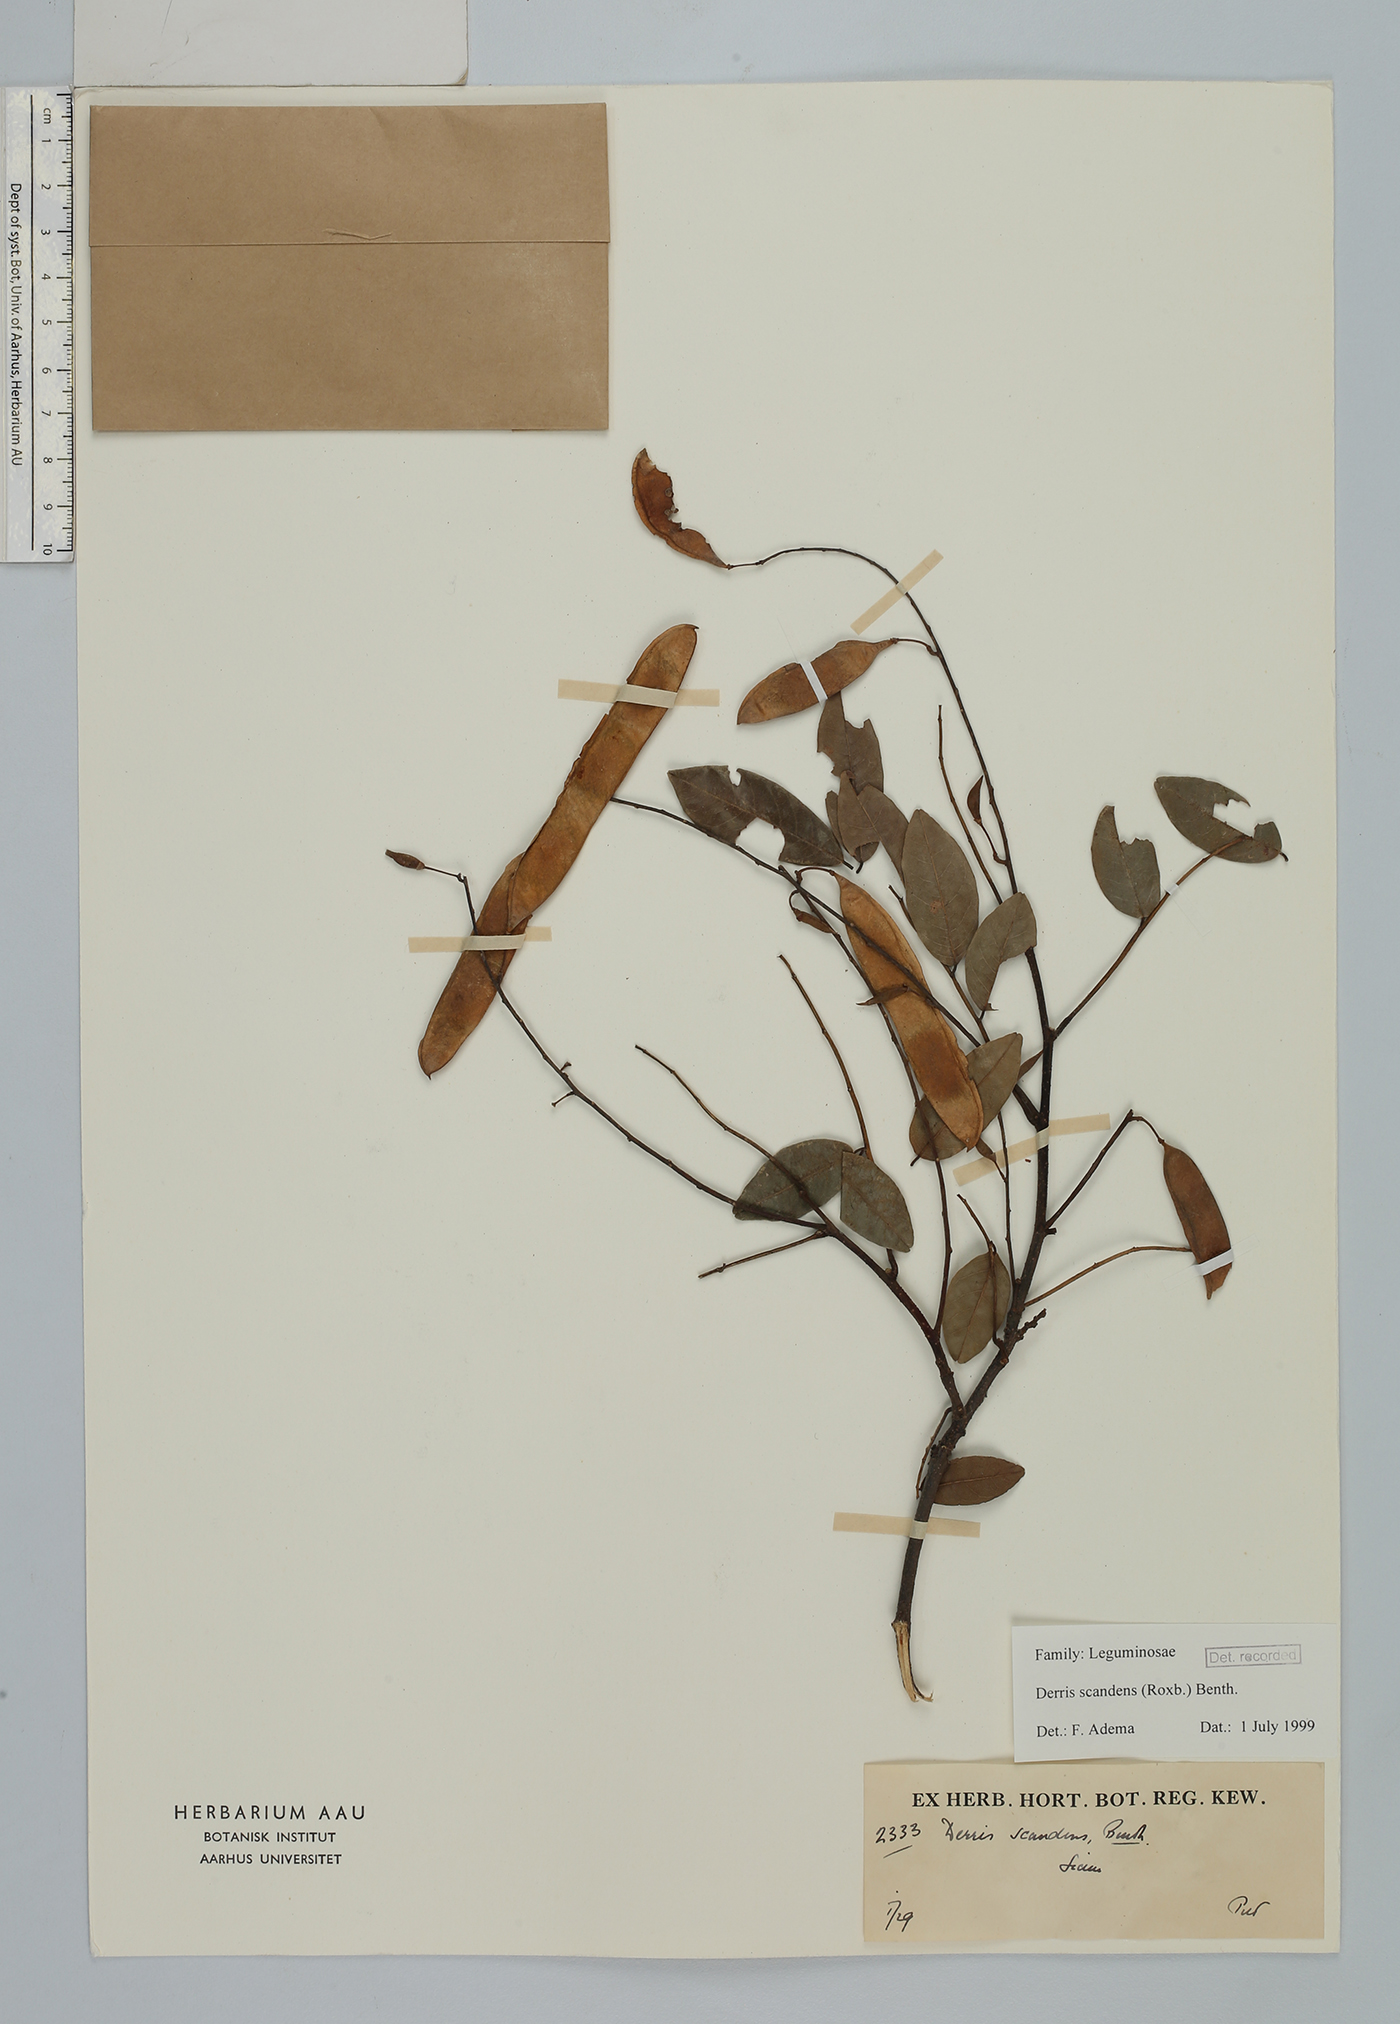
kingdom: Plantae
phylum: Tracheophyta
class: Magnoliopsida
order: Fabales
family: Fabaceae
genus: Brachypterum
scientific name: Brachypterum scandens
